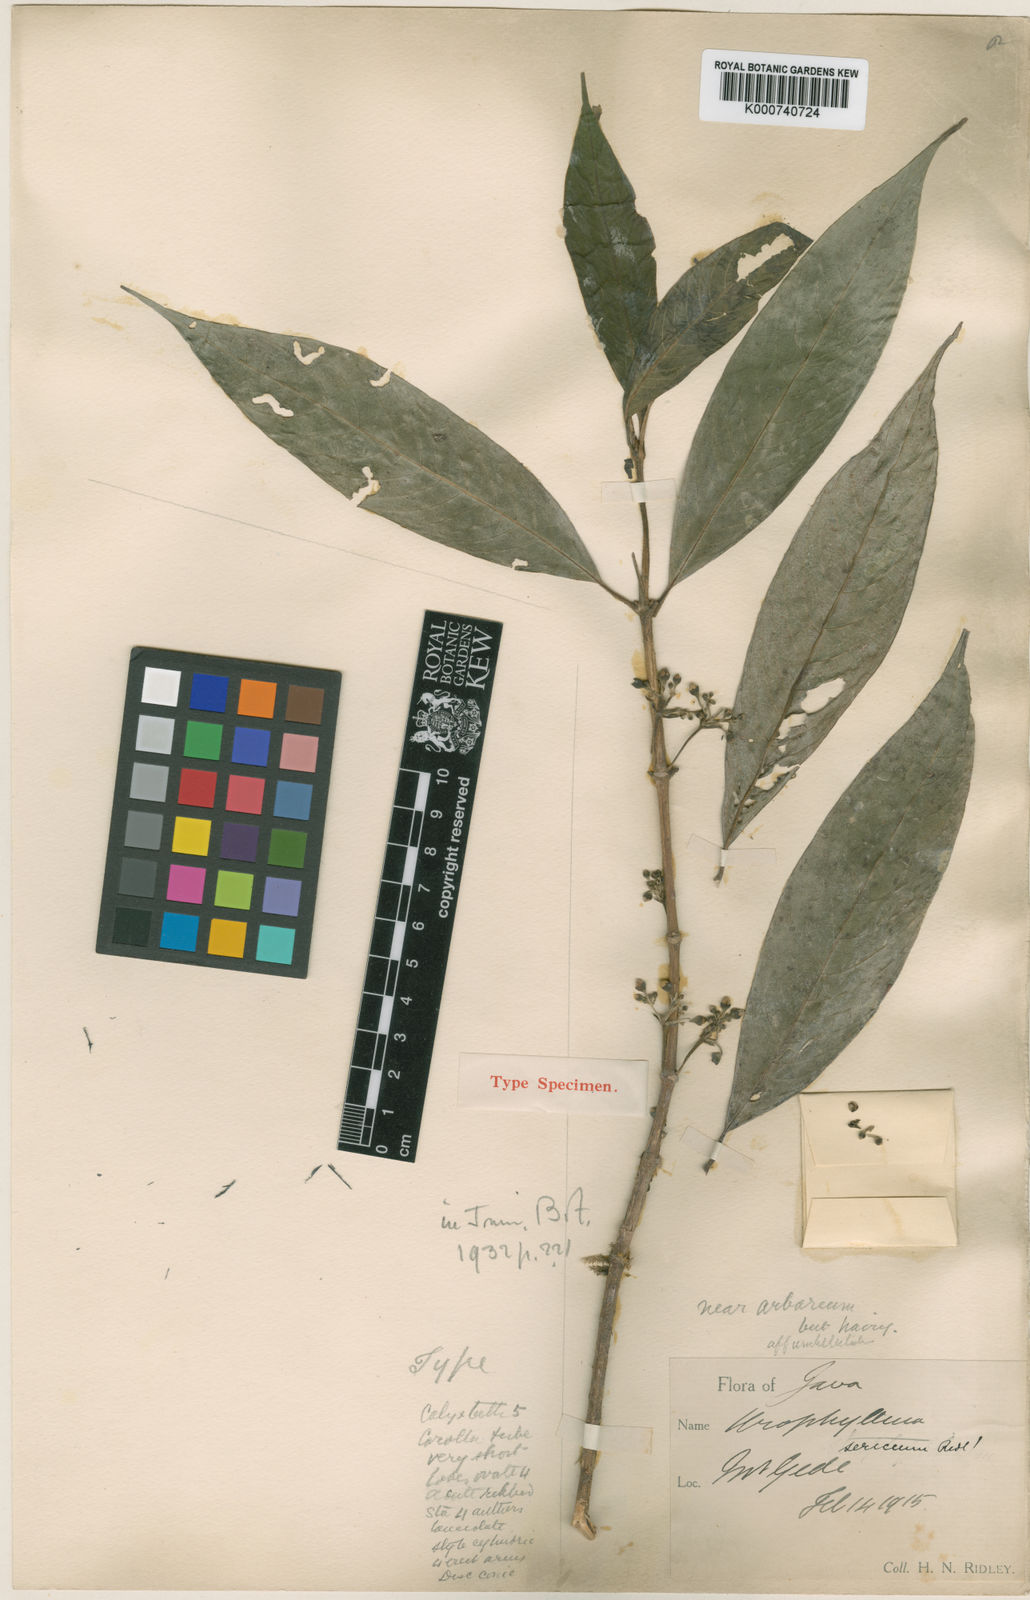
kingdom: Plantae
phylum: Tracheophyta
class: Magnoliopsida
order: Gentianales
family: Rubiaceae
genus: Urophyllum
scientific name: Urophyllum corymbosum
